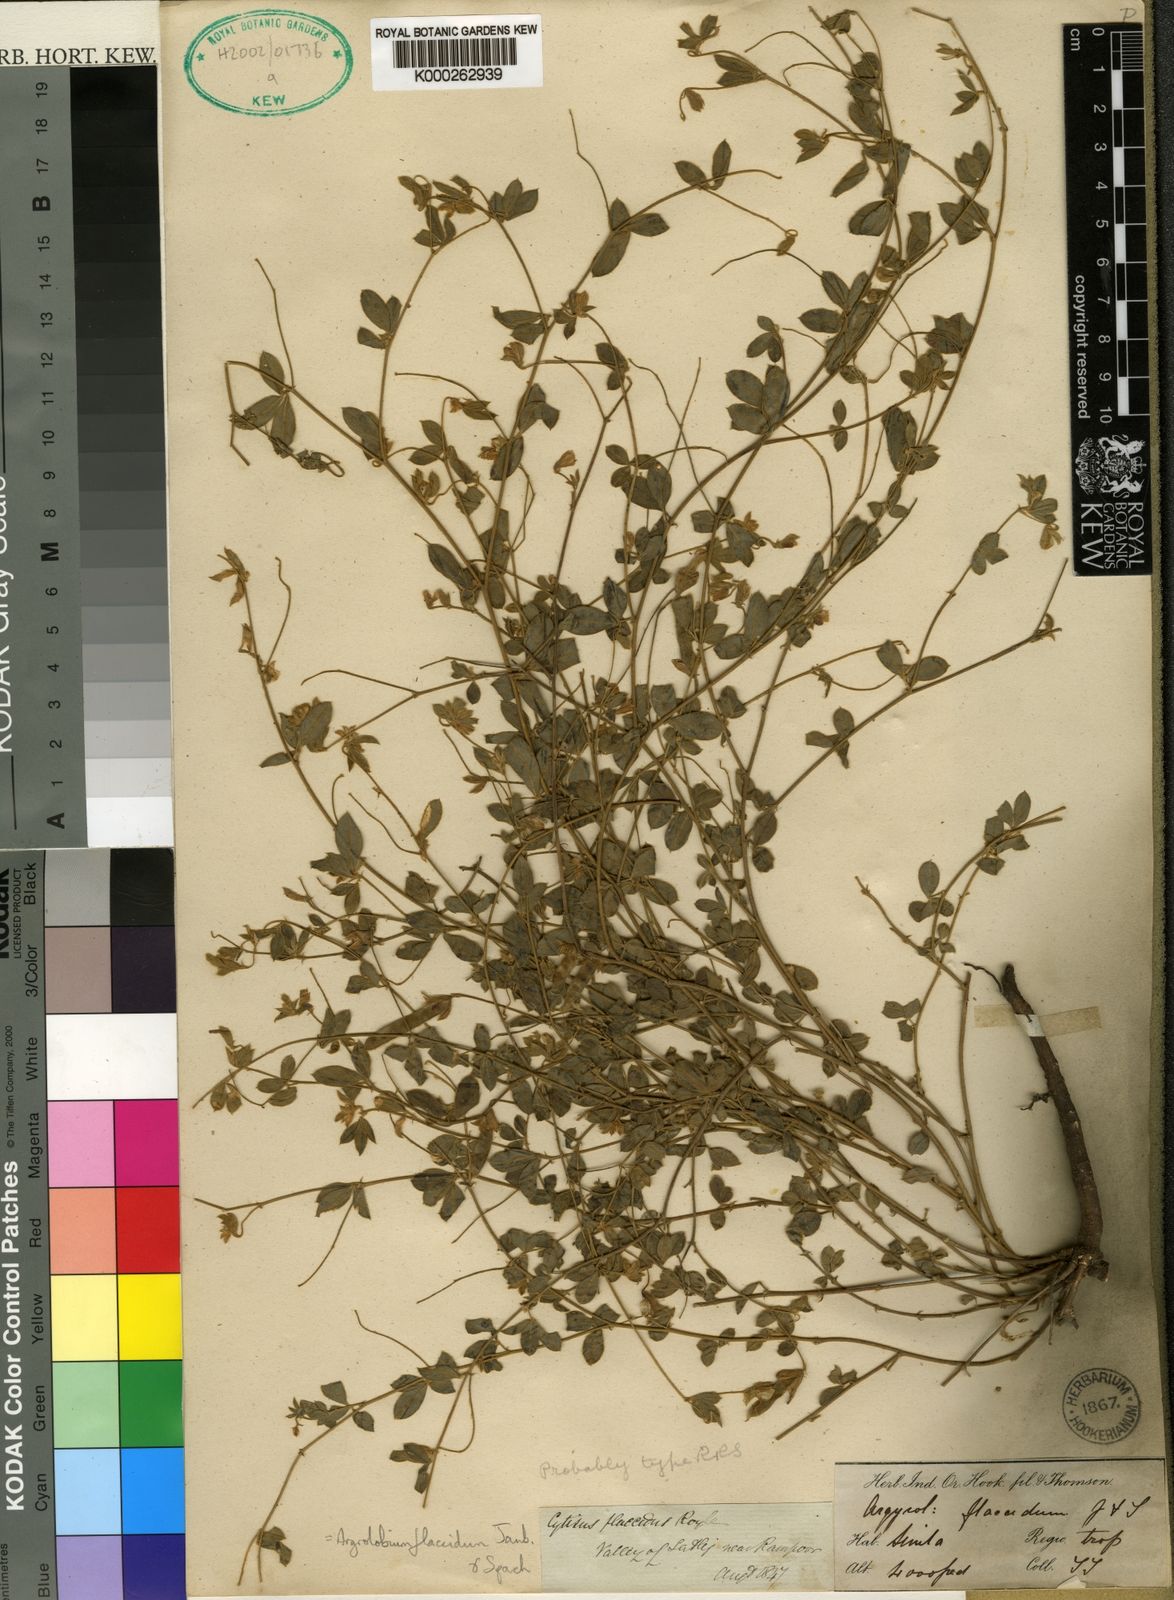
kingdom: Plantae
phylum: Tracheophyta
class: Magnoliopsida
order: Fabales
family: Fabaceae
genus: Argyrolobium
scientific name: Argyrolobium flaccidum
